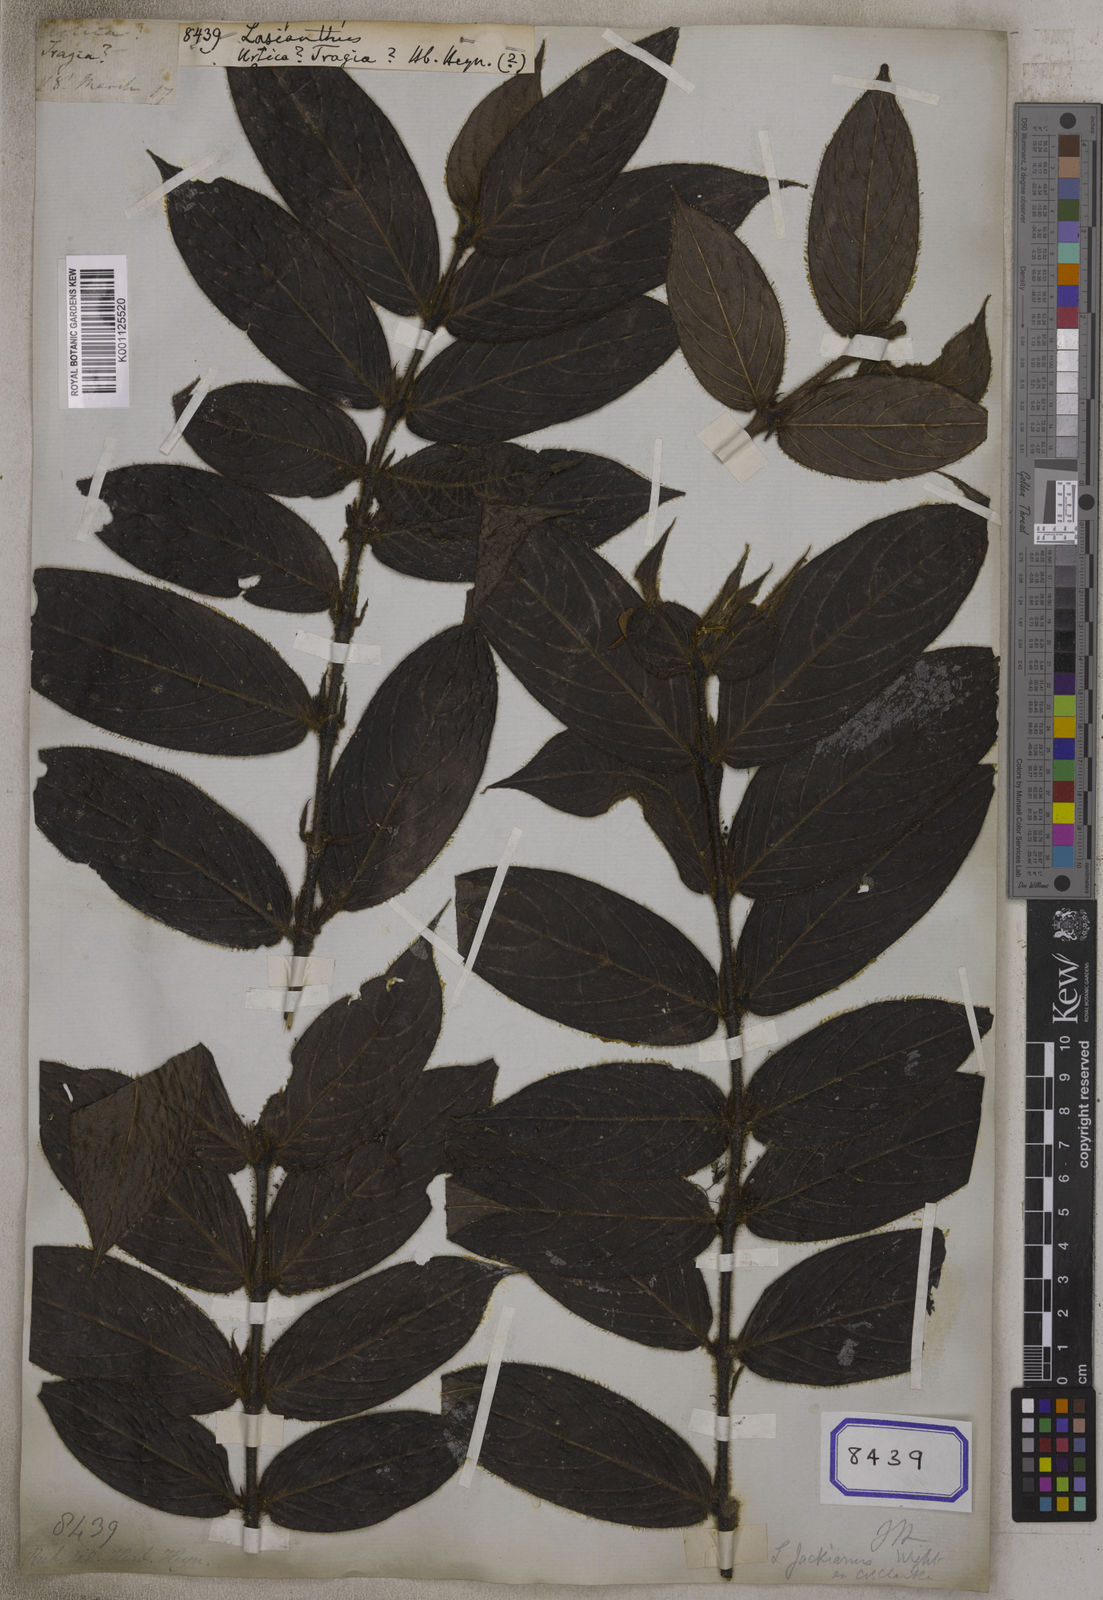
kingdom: Plantae
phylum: Tracheophyta
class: Magnoliopsida
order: Gentianales
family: Rubiaceae
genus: Lasianthus
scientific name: Lasianthus
